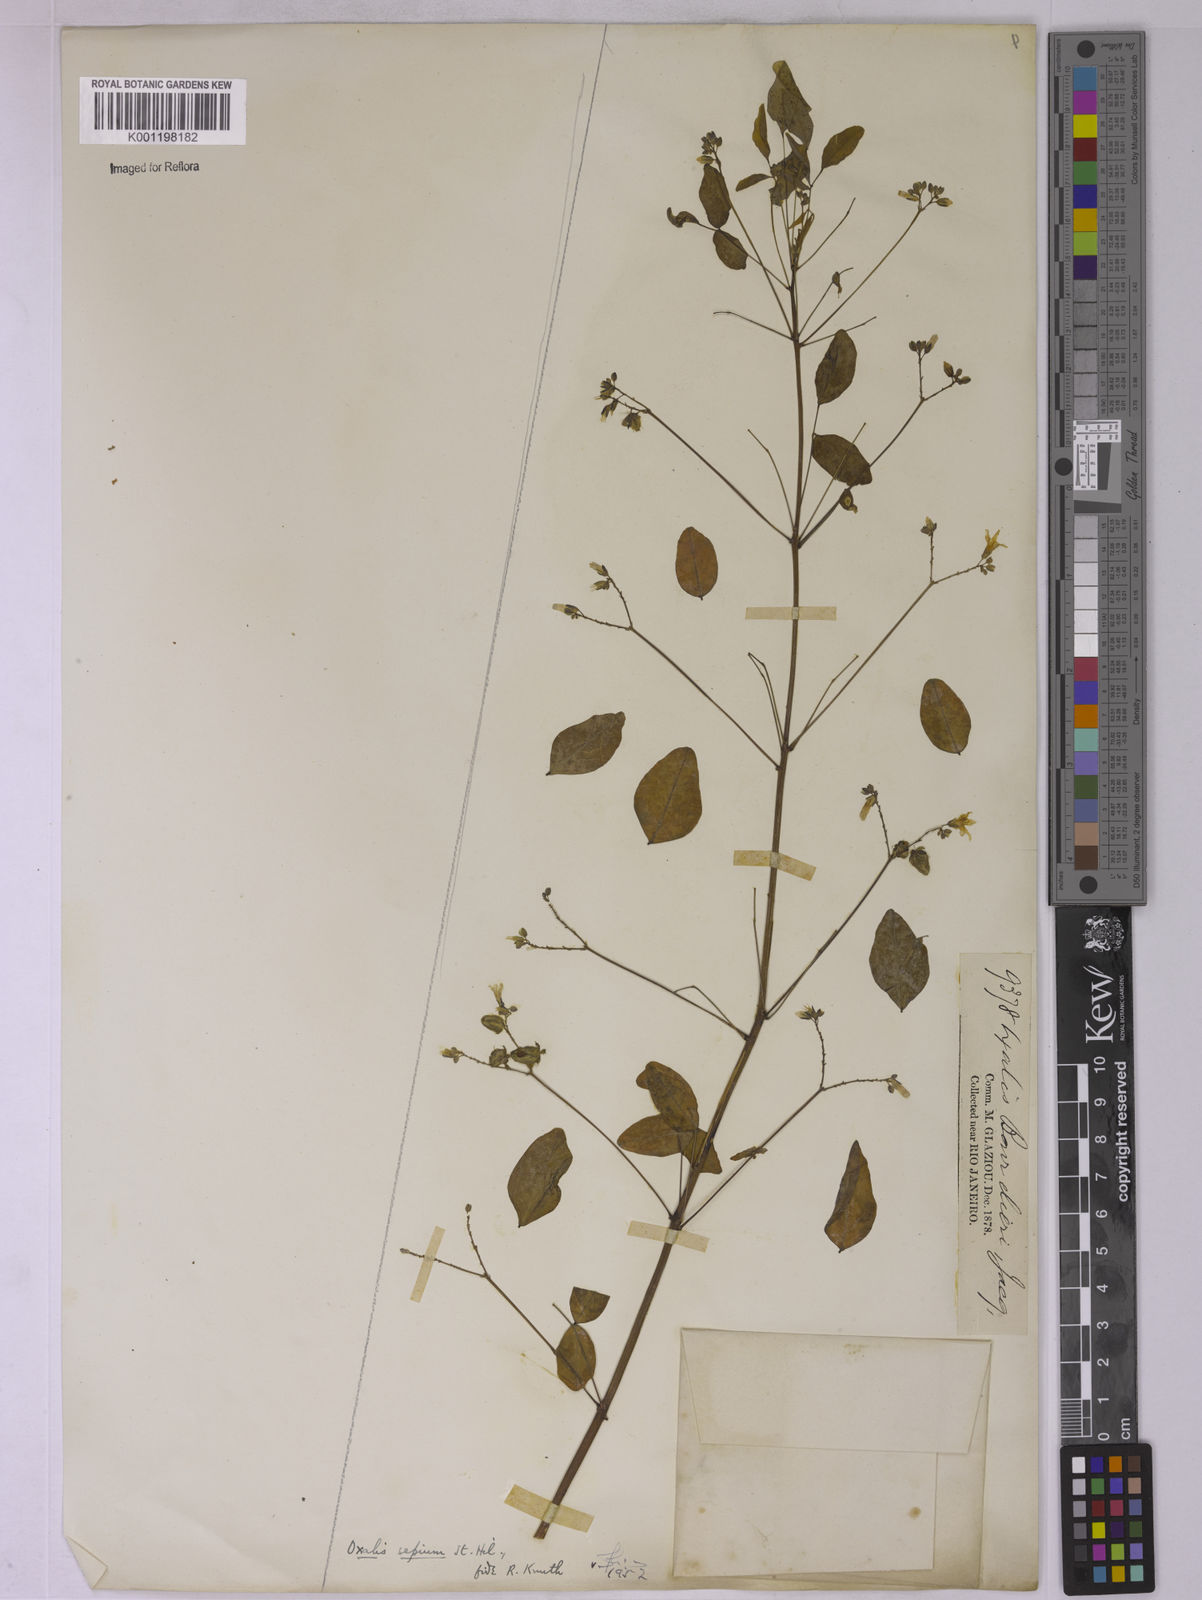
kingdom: Plantae
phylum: Tracheophyta
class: Magnoliopsida
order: Oxalidales
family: Oxalidaceae
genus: Oxalis
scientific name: Oxalis sepium
